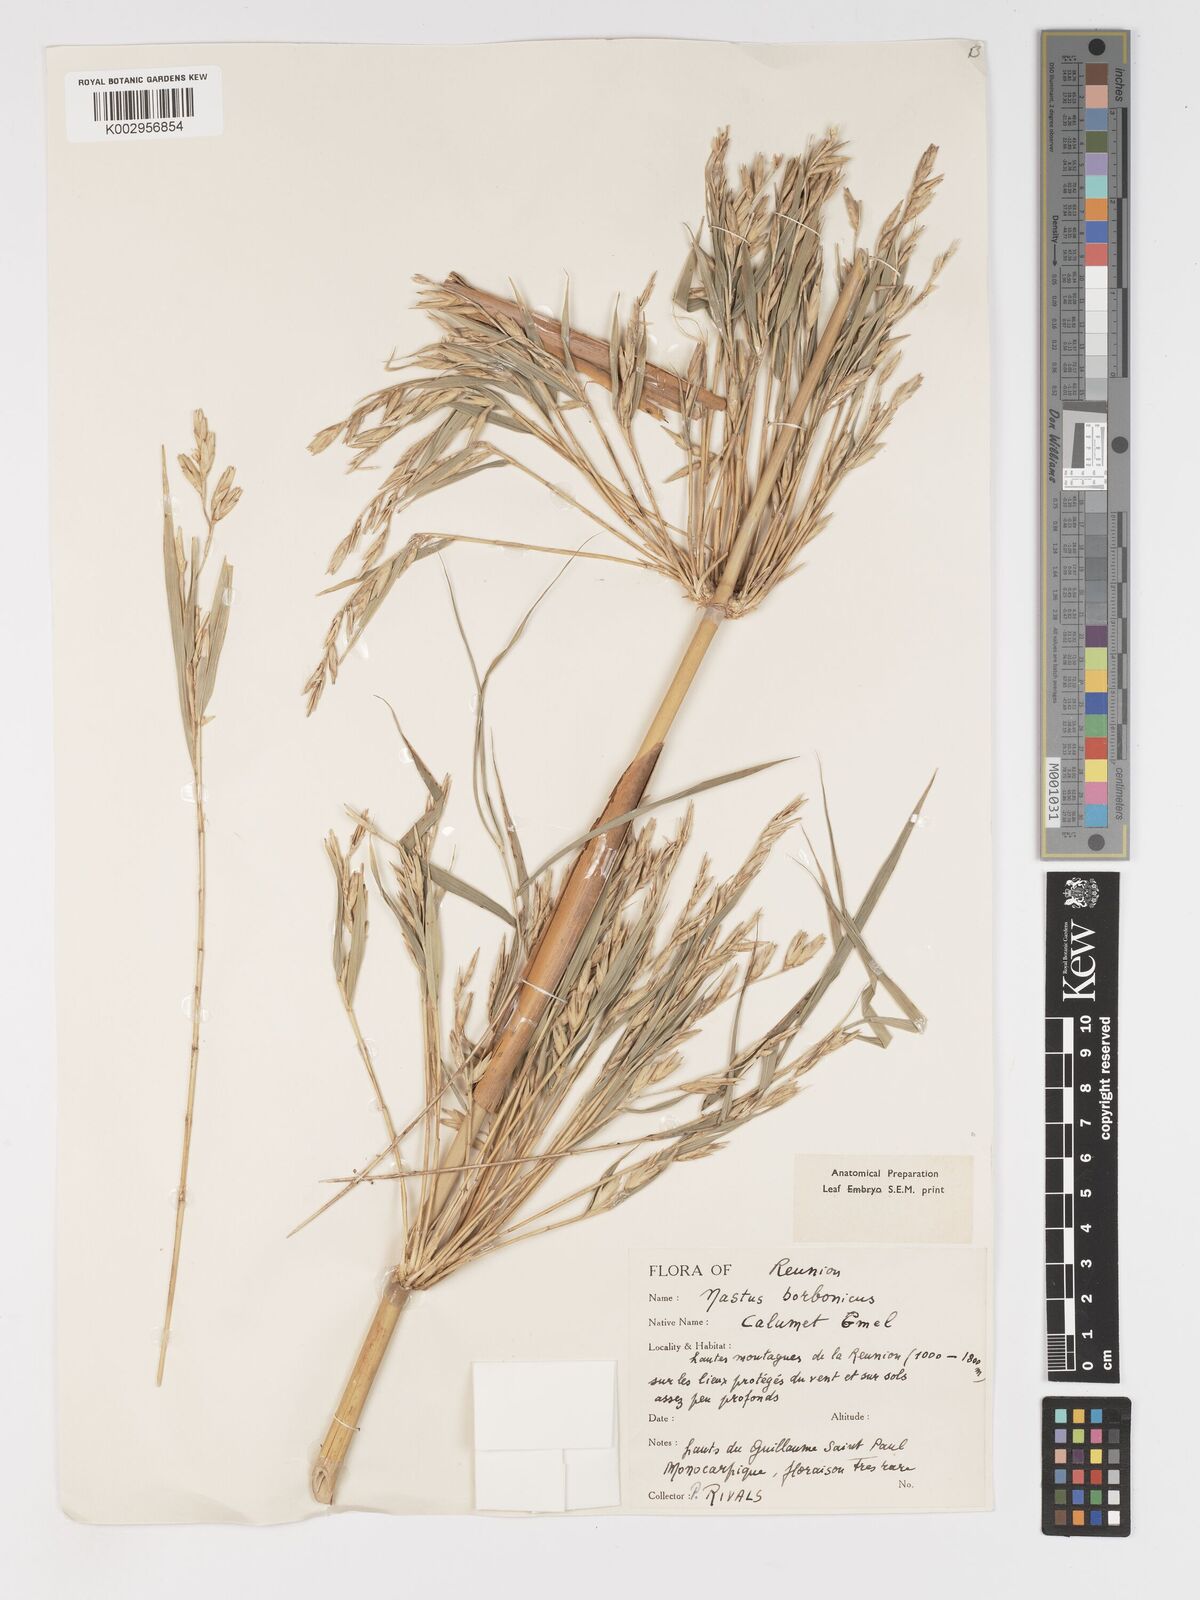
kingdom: Plantae
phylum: Tracheophyta
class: Liliopsida
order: Poales
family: Poaceae
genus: Nastus
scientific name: Nastus
